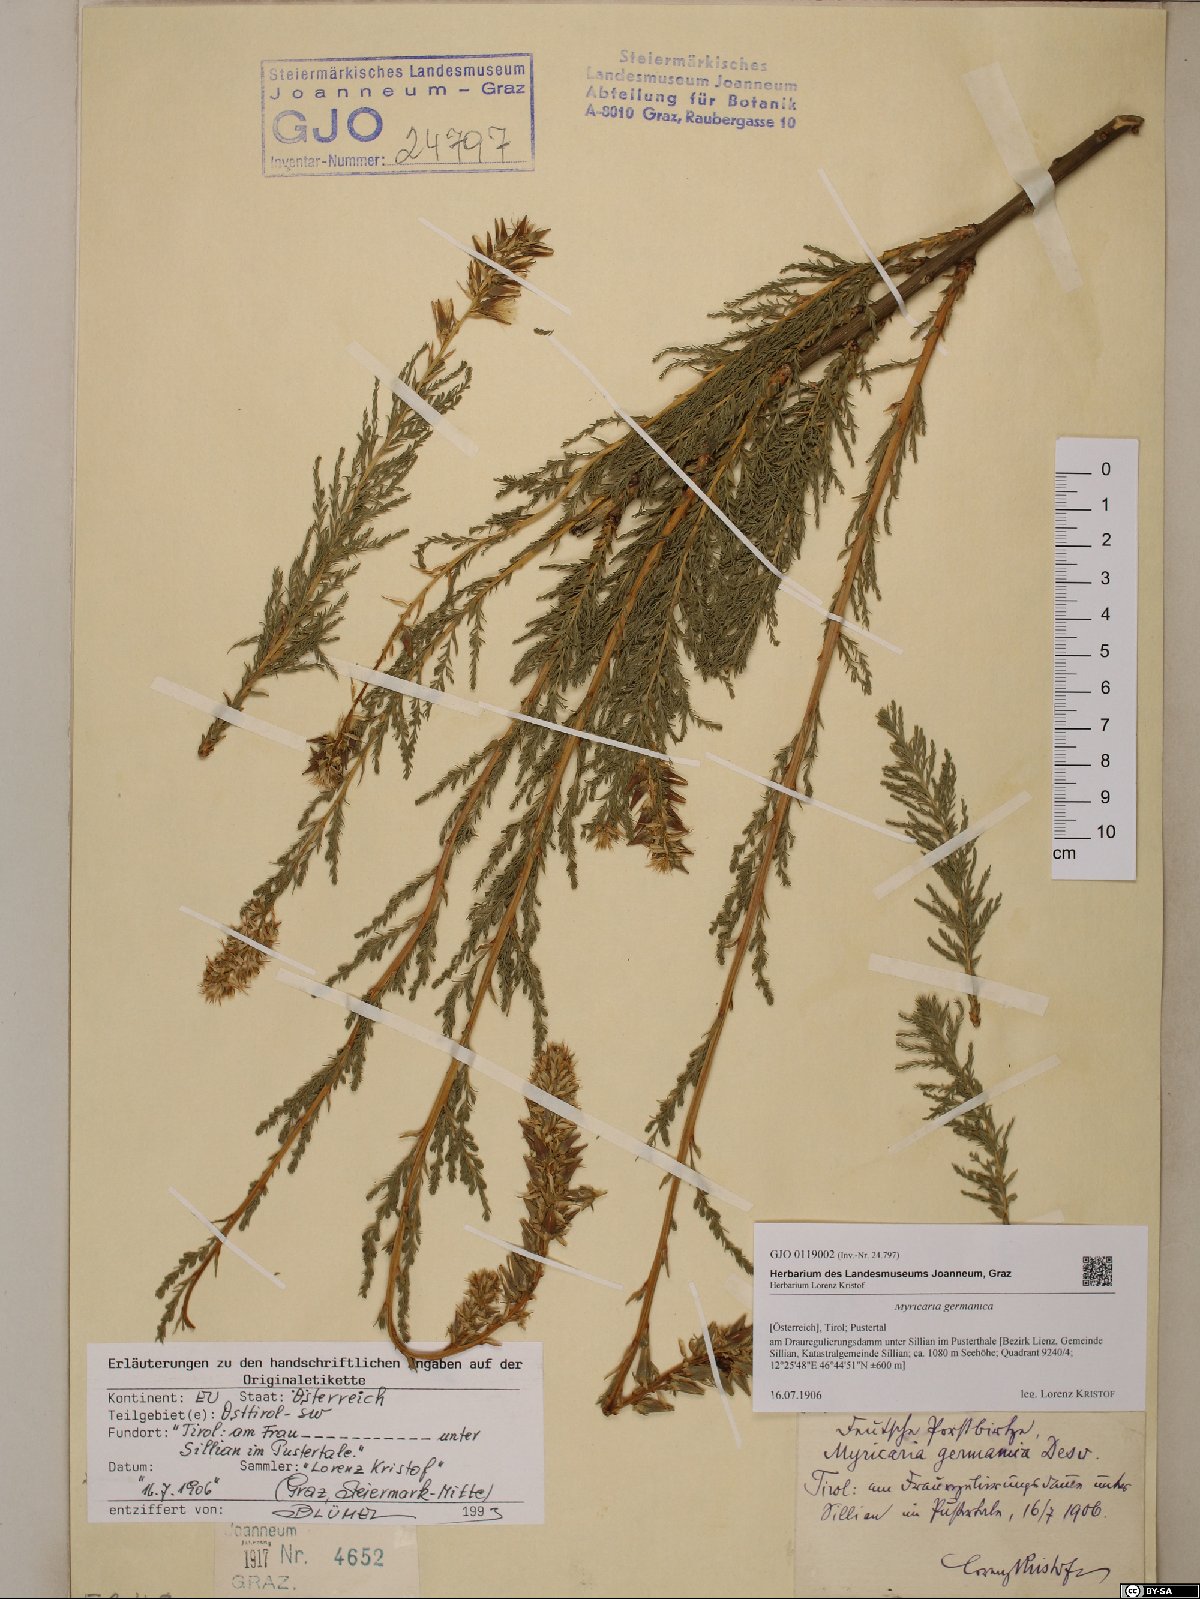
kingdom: Plantae
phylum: Tracheophyta
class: Magnoliopsida
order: Caryophyllales
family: Tamaricaceae
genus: Myricaria
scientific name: Myricaria germanica
